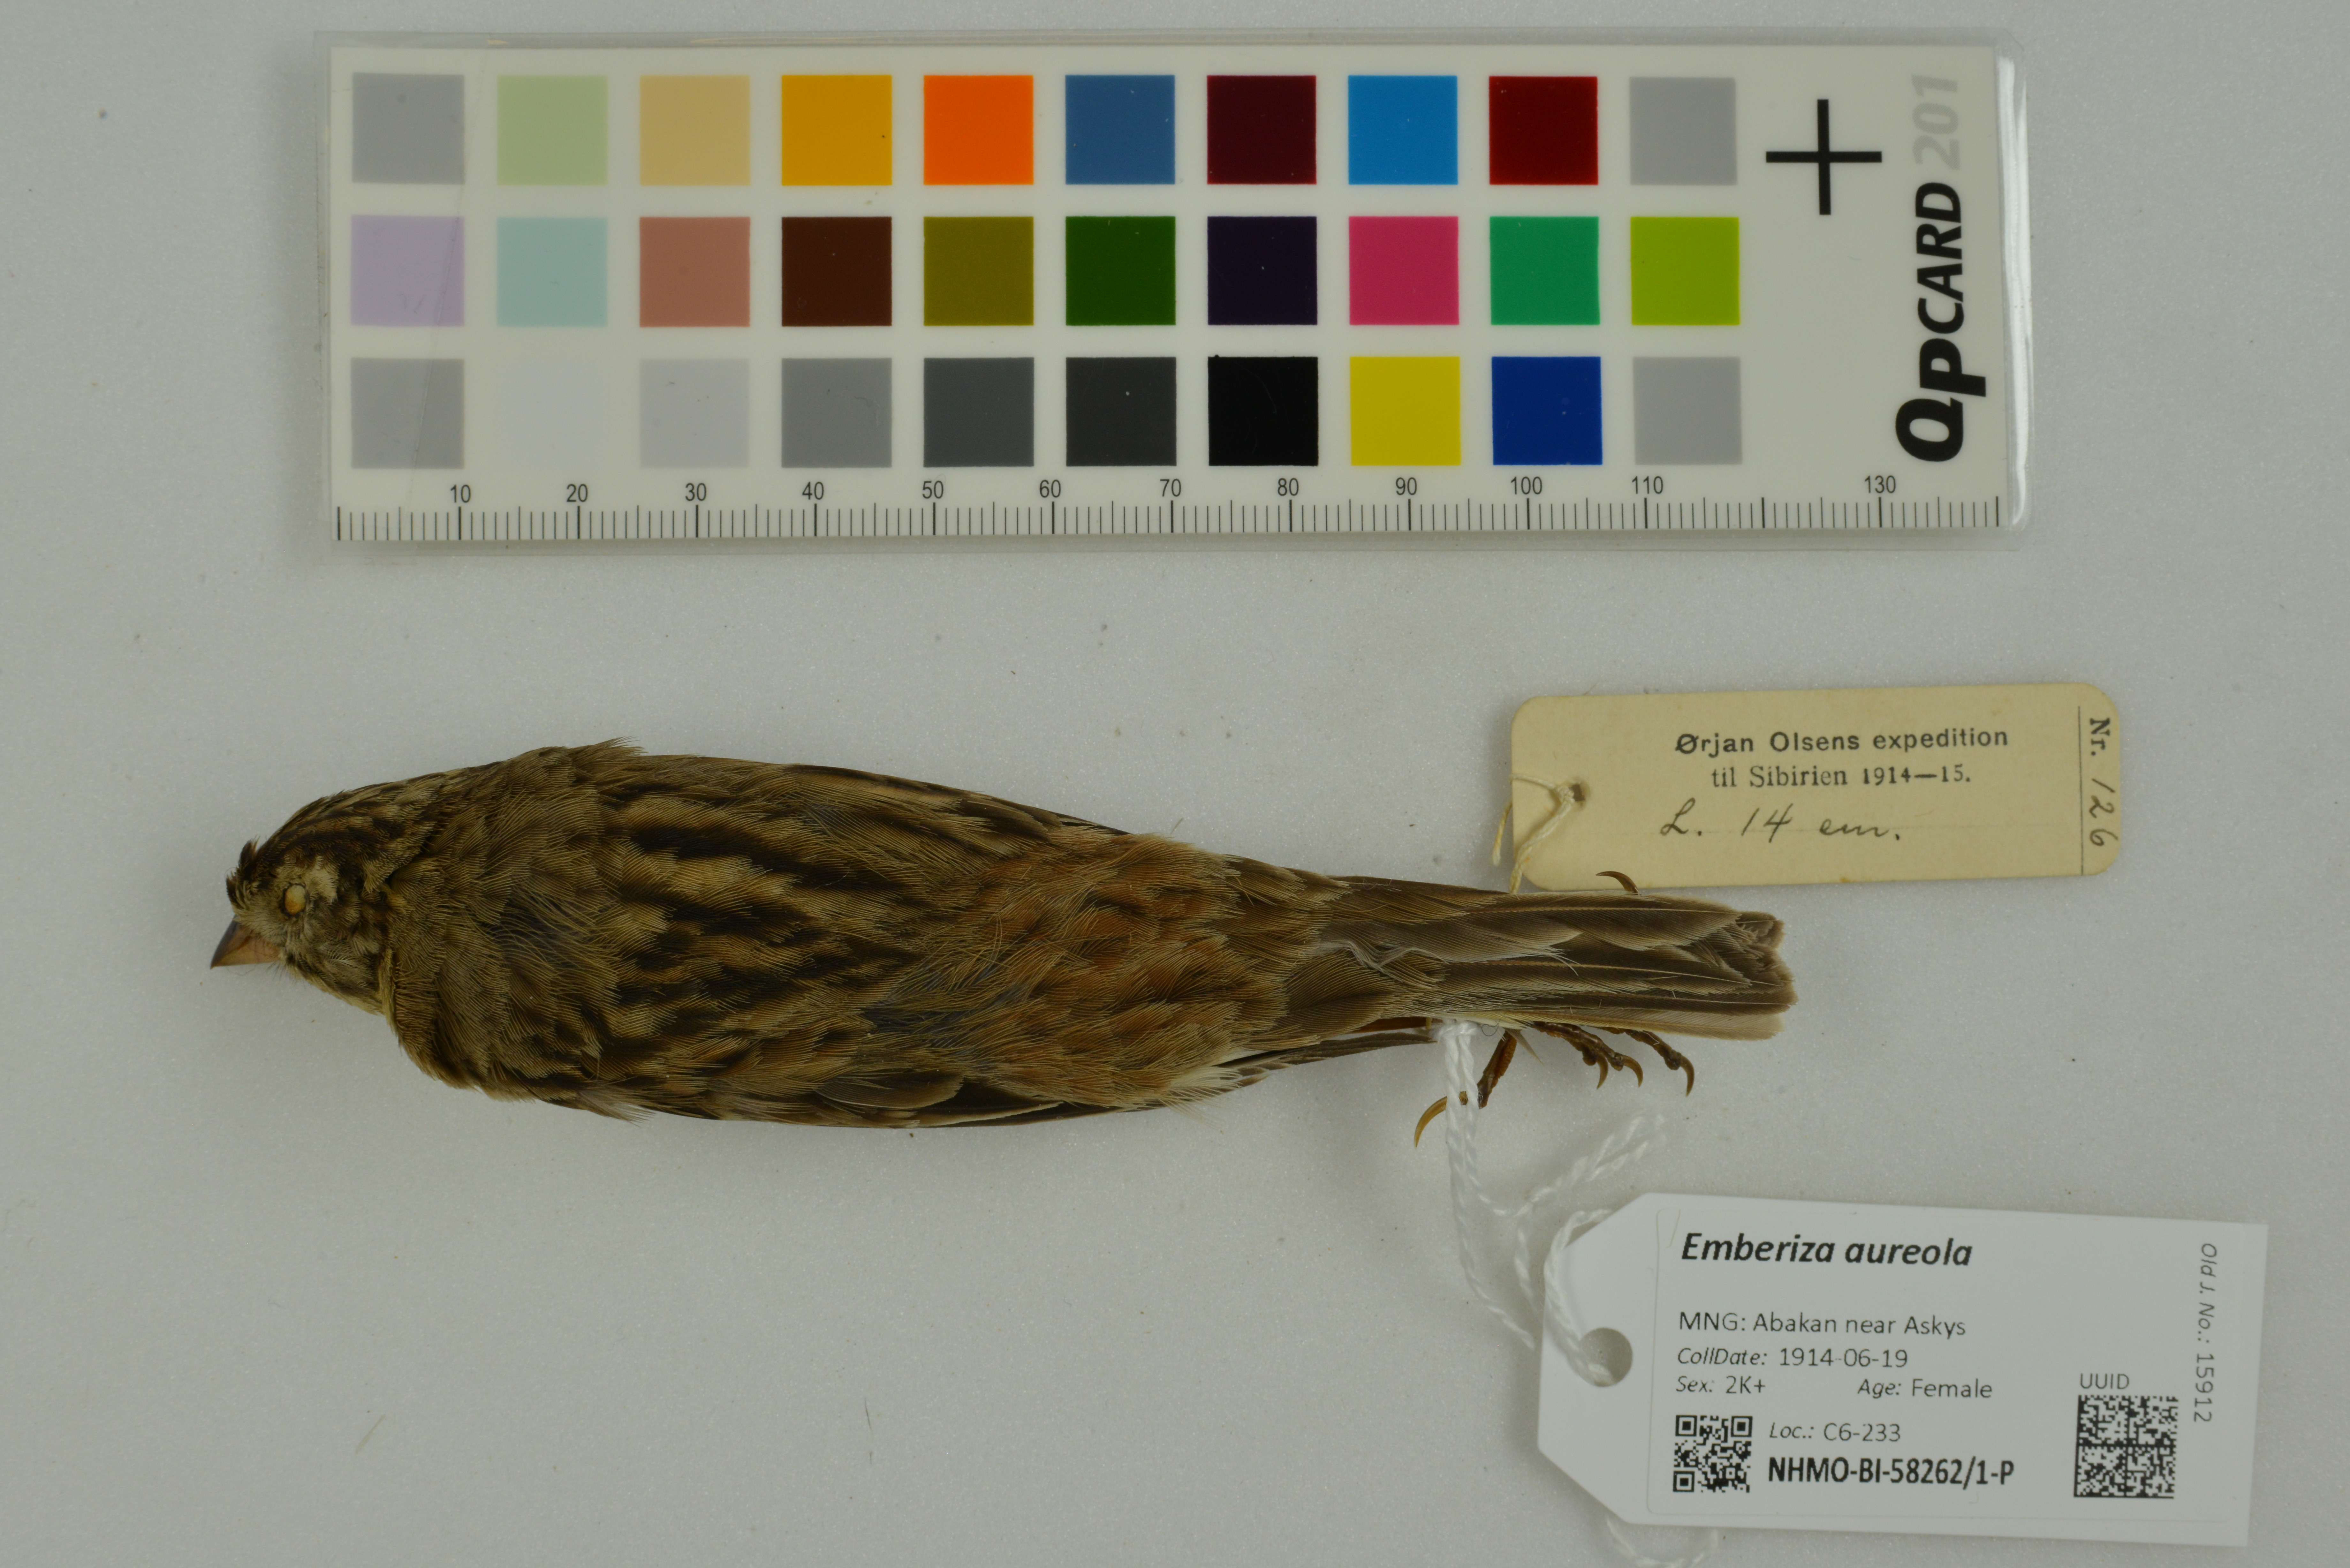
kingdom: Animalia
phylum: Chordata
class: Aves
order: Passeriformes
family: Emberizidae
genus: Emberiza
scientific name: Emberiza aureola
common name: Yellow-breasted bunting
